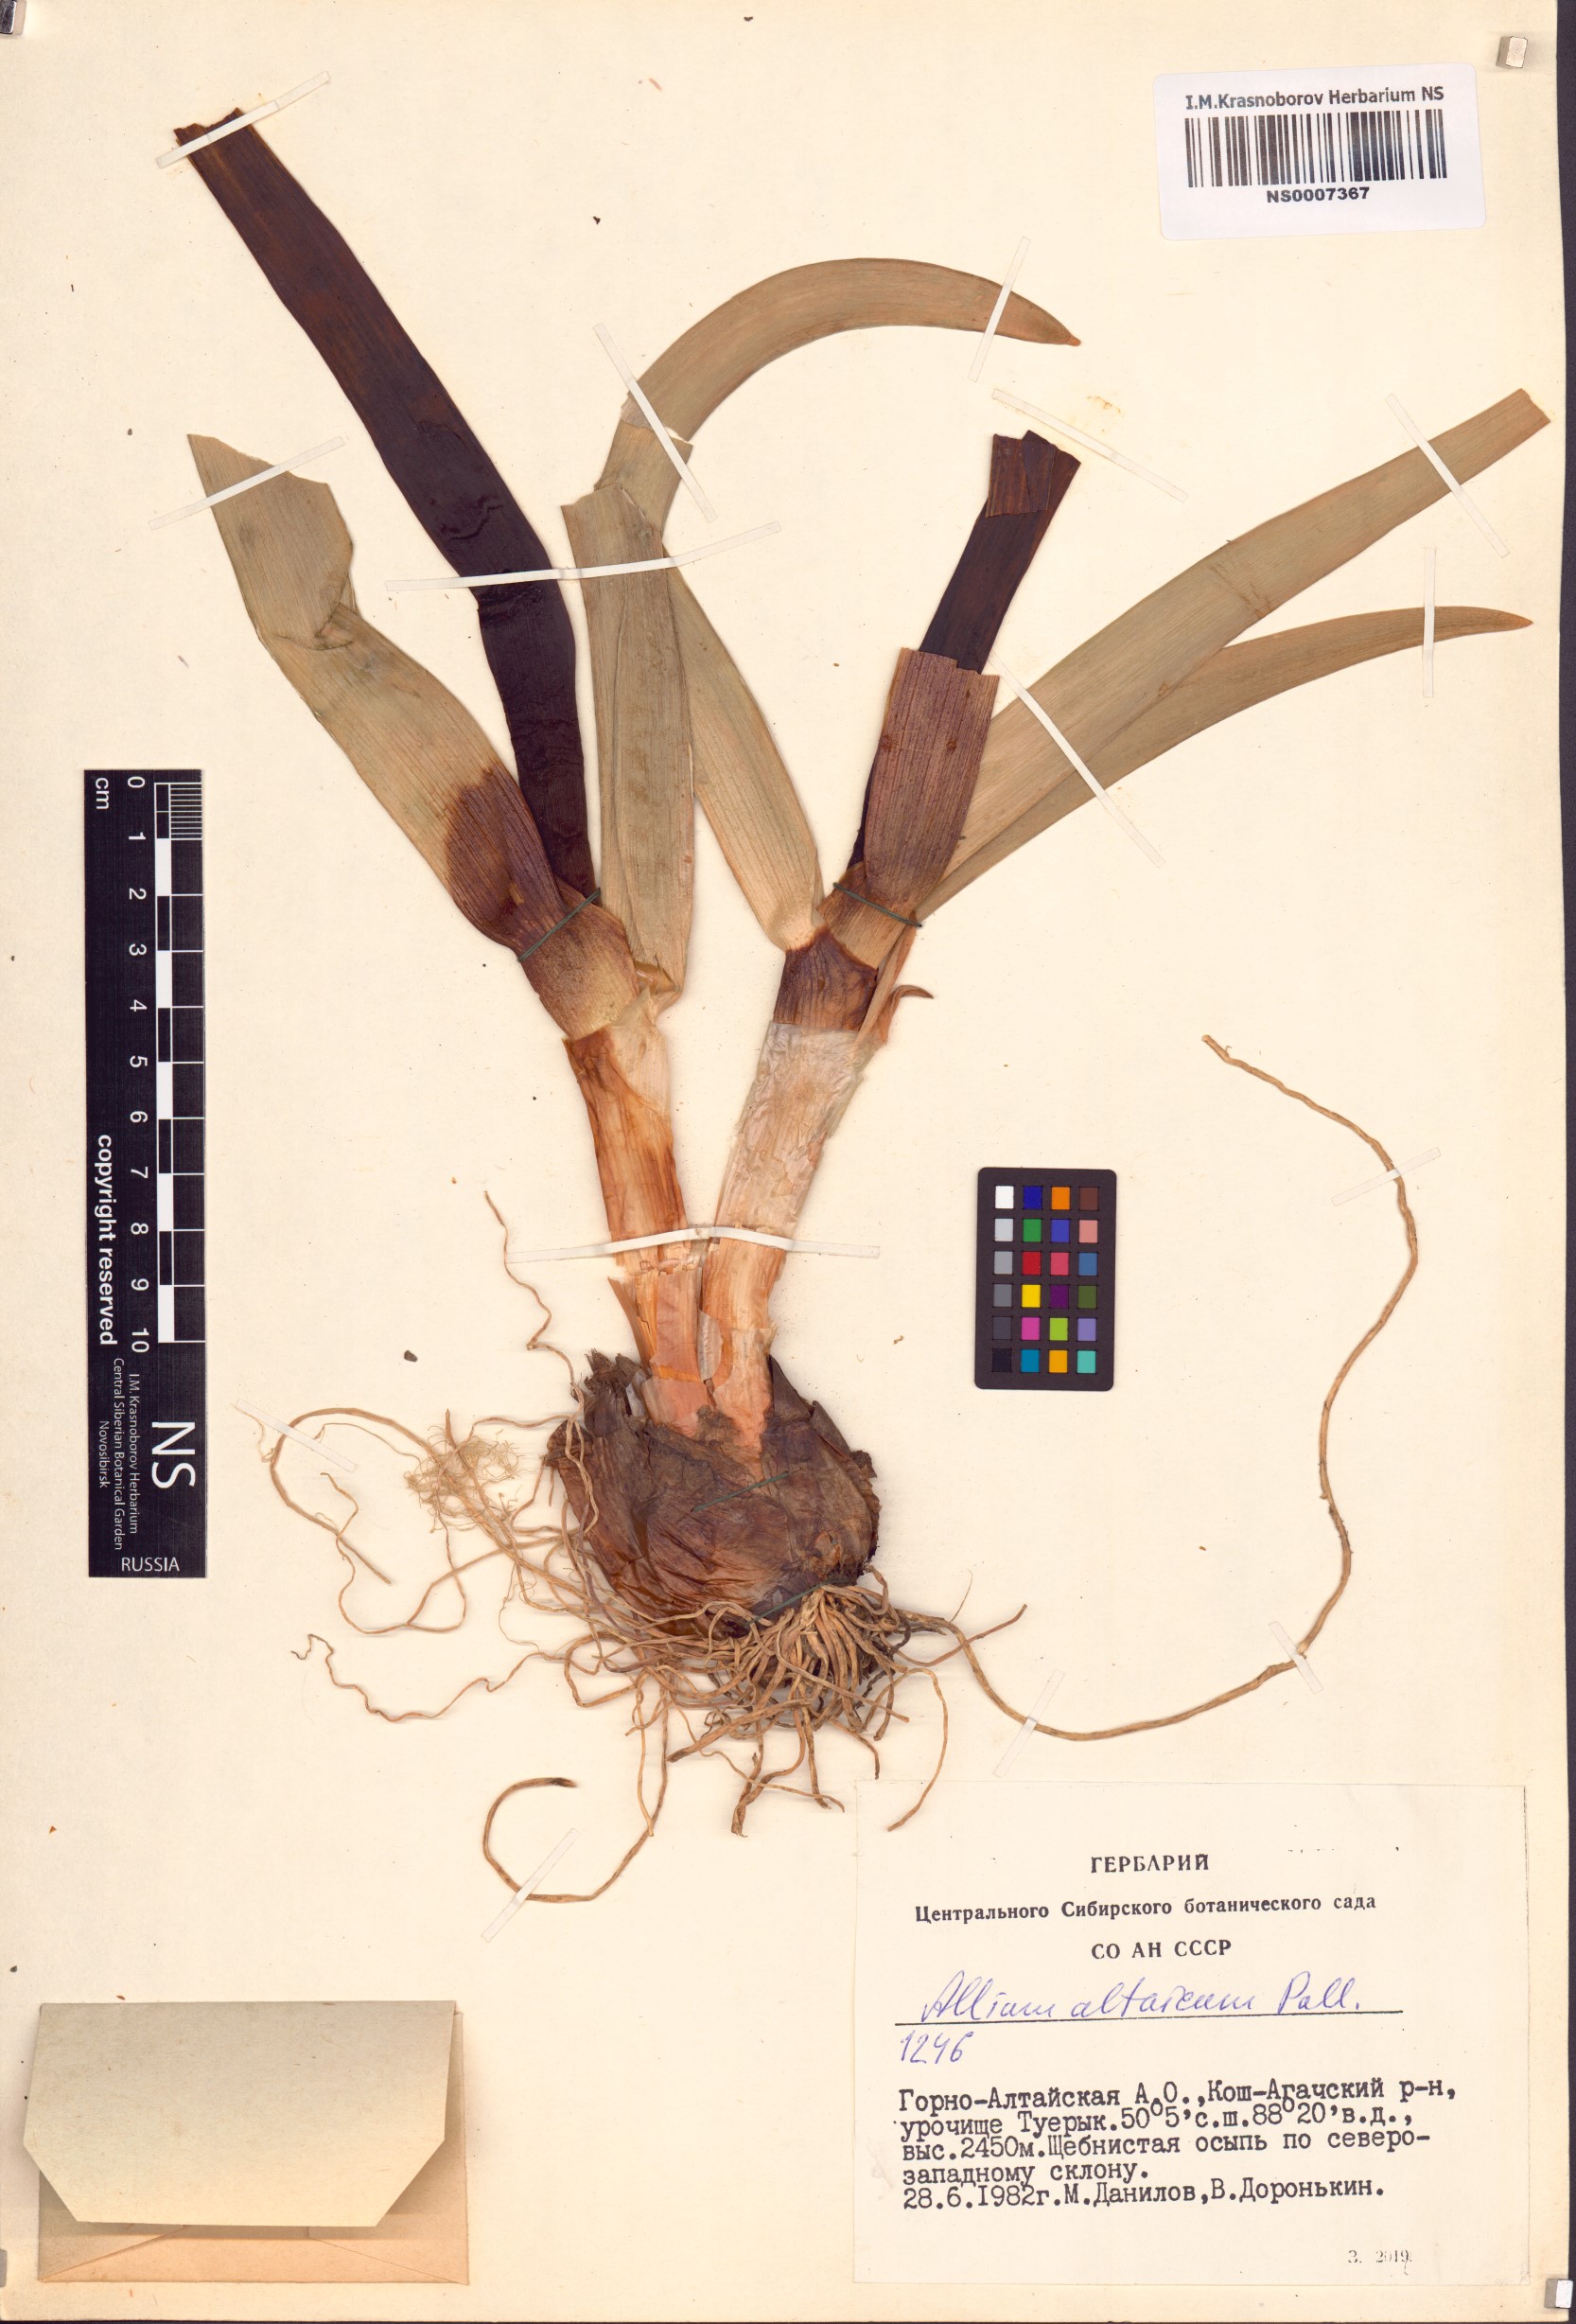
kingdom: Plantae
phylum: Tracheophyta
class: Liliopsida
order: Asparagales
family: Amaryllidaceae
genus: Allium
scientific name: Allium altaicum
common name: Altai onion
